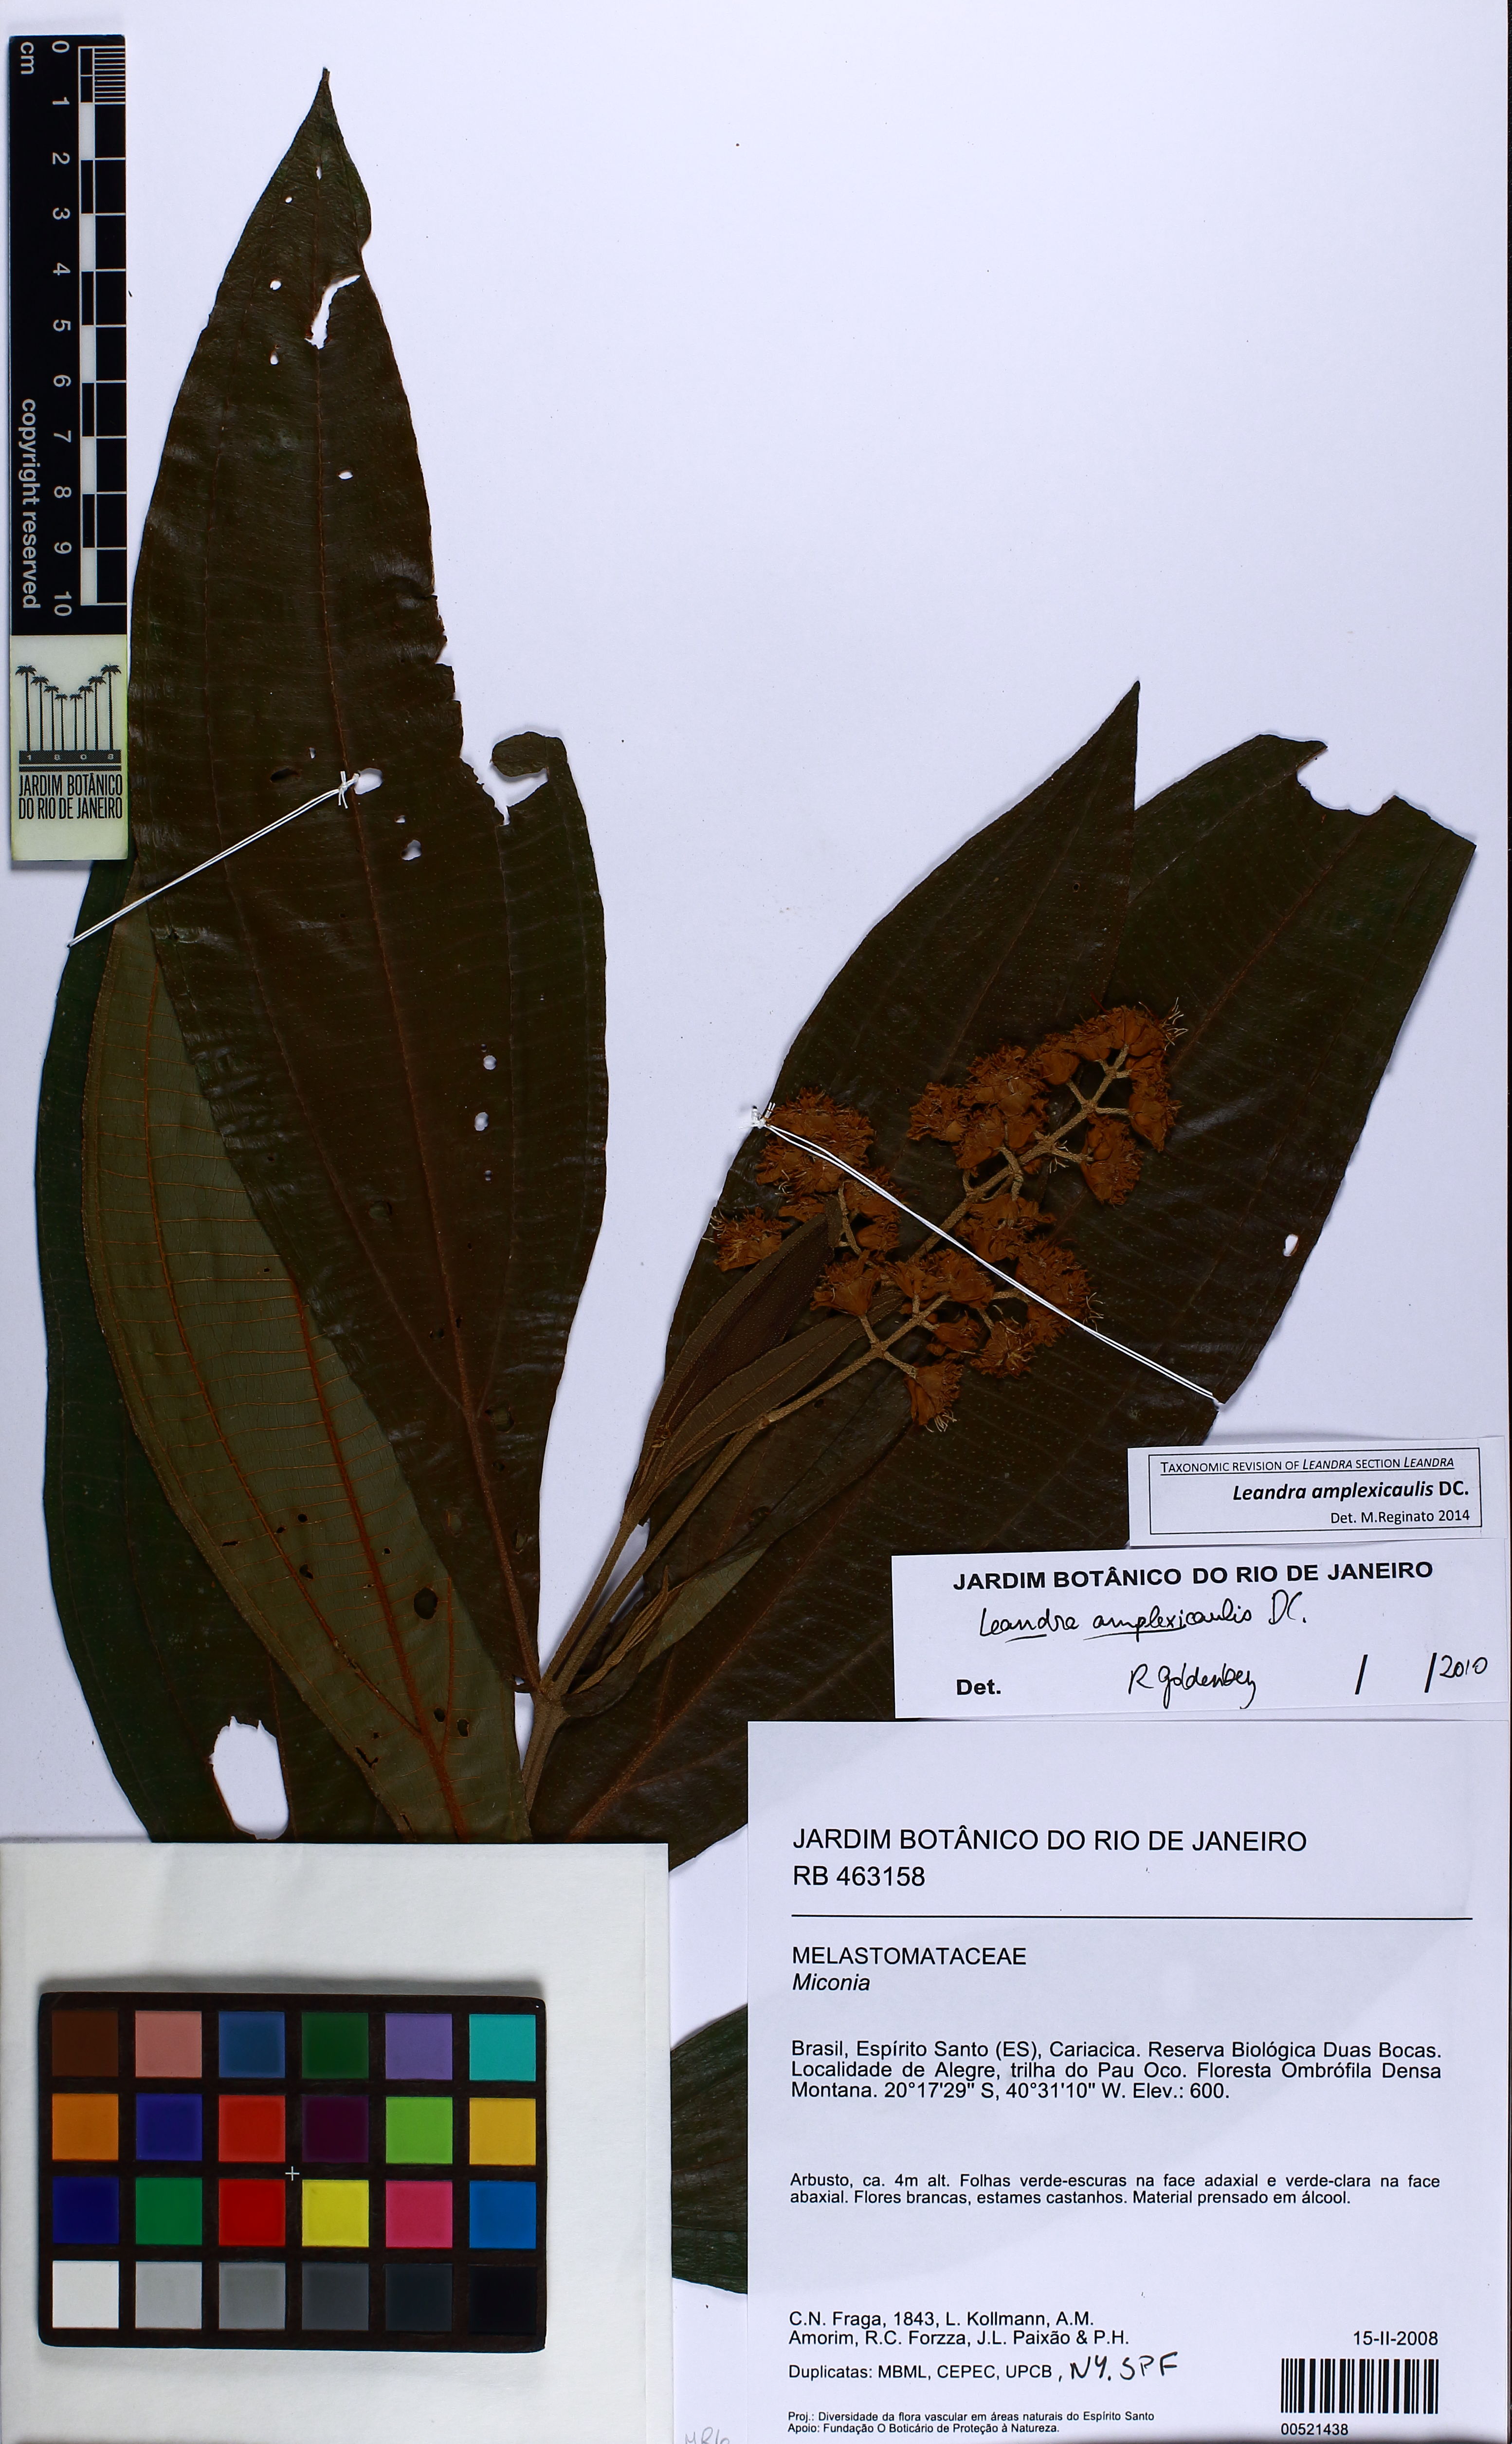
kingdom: Plantae
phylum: Tracheophyta
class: Magnoliopsida
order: Myrtales
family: Melastomataceae
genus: Miconia
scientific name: Miconia pectinata
